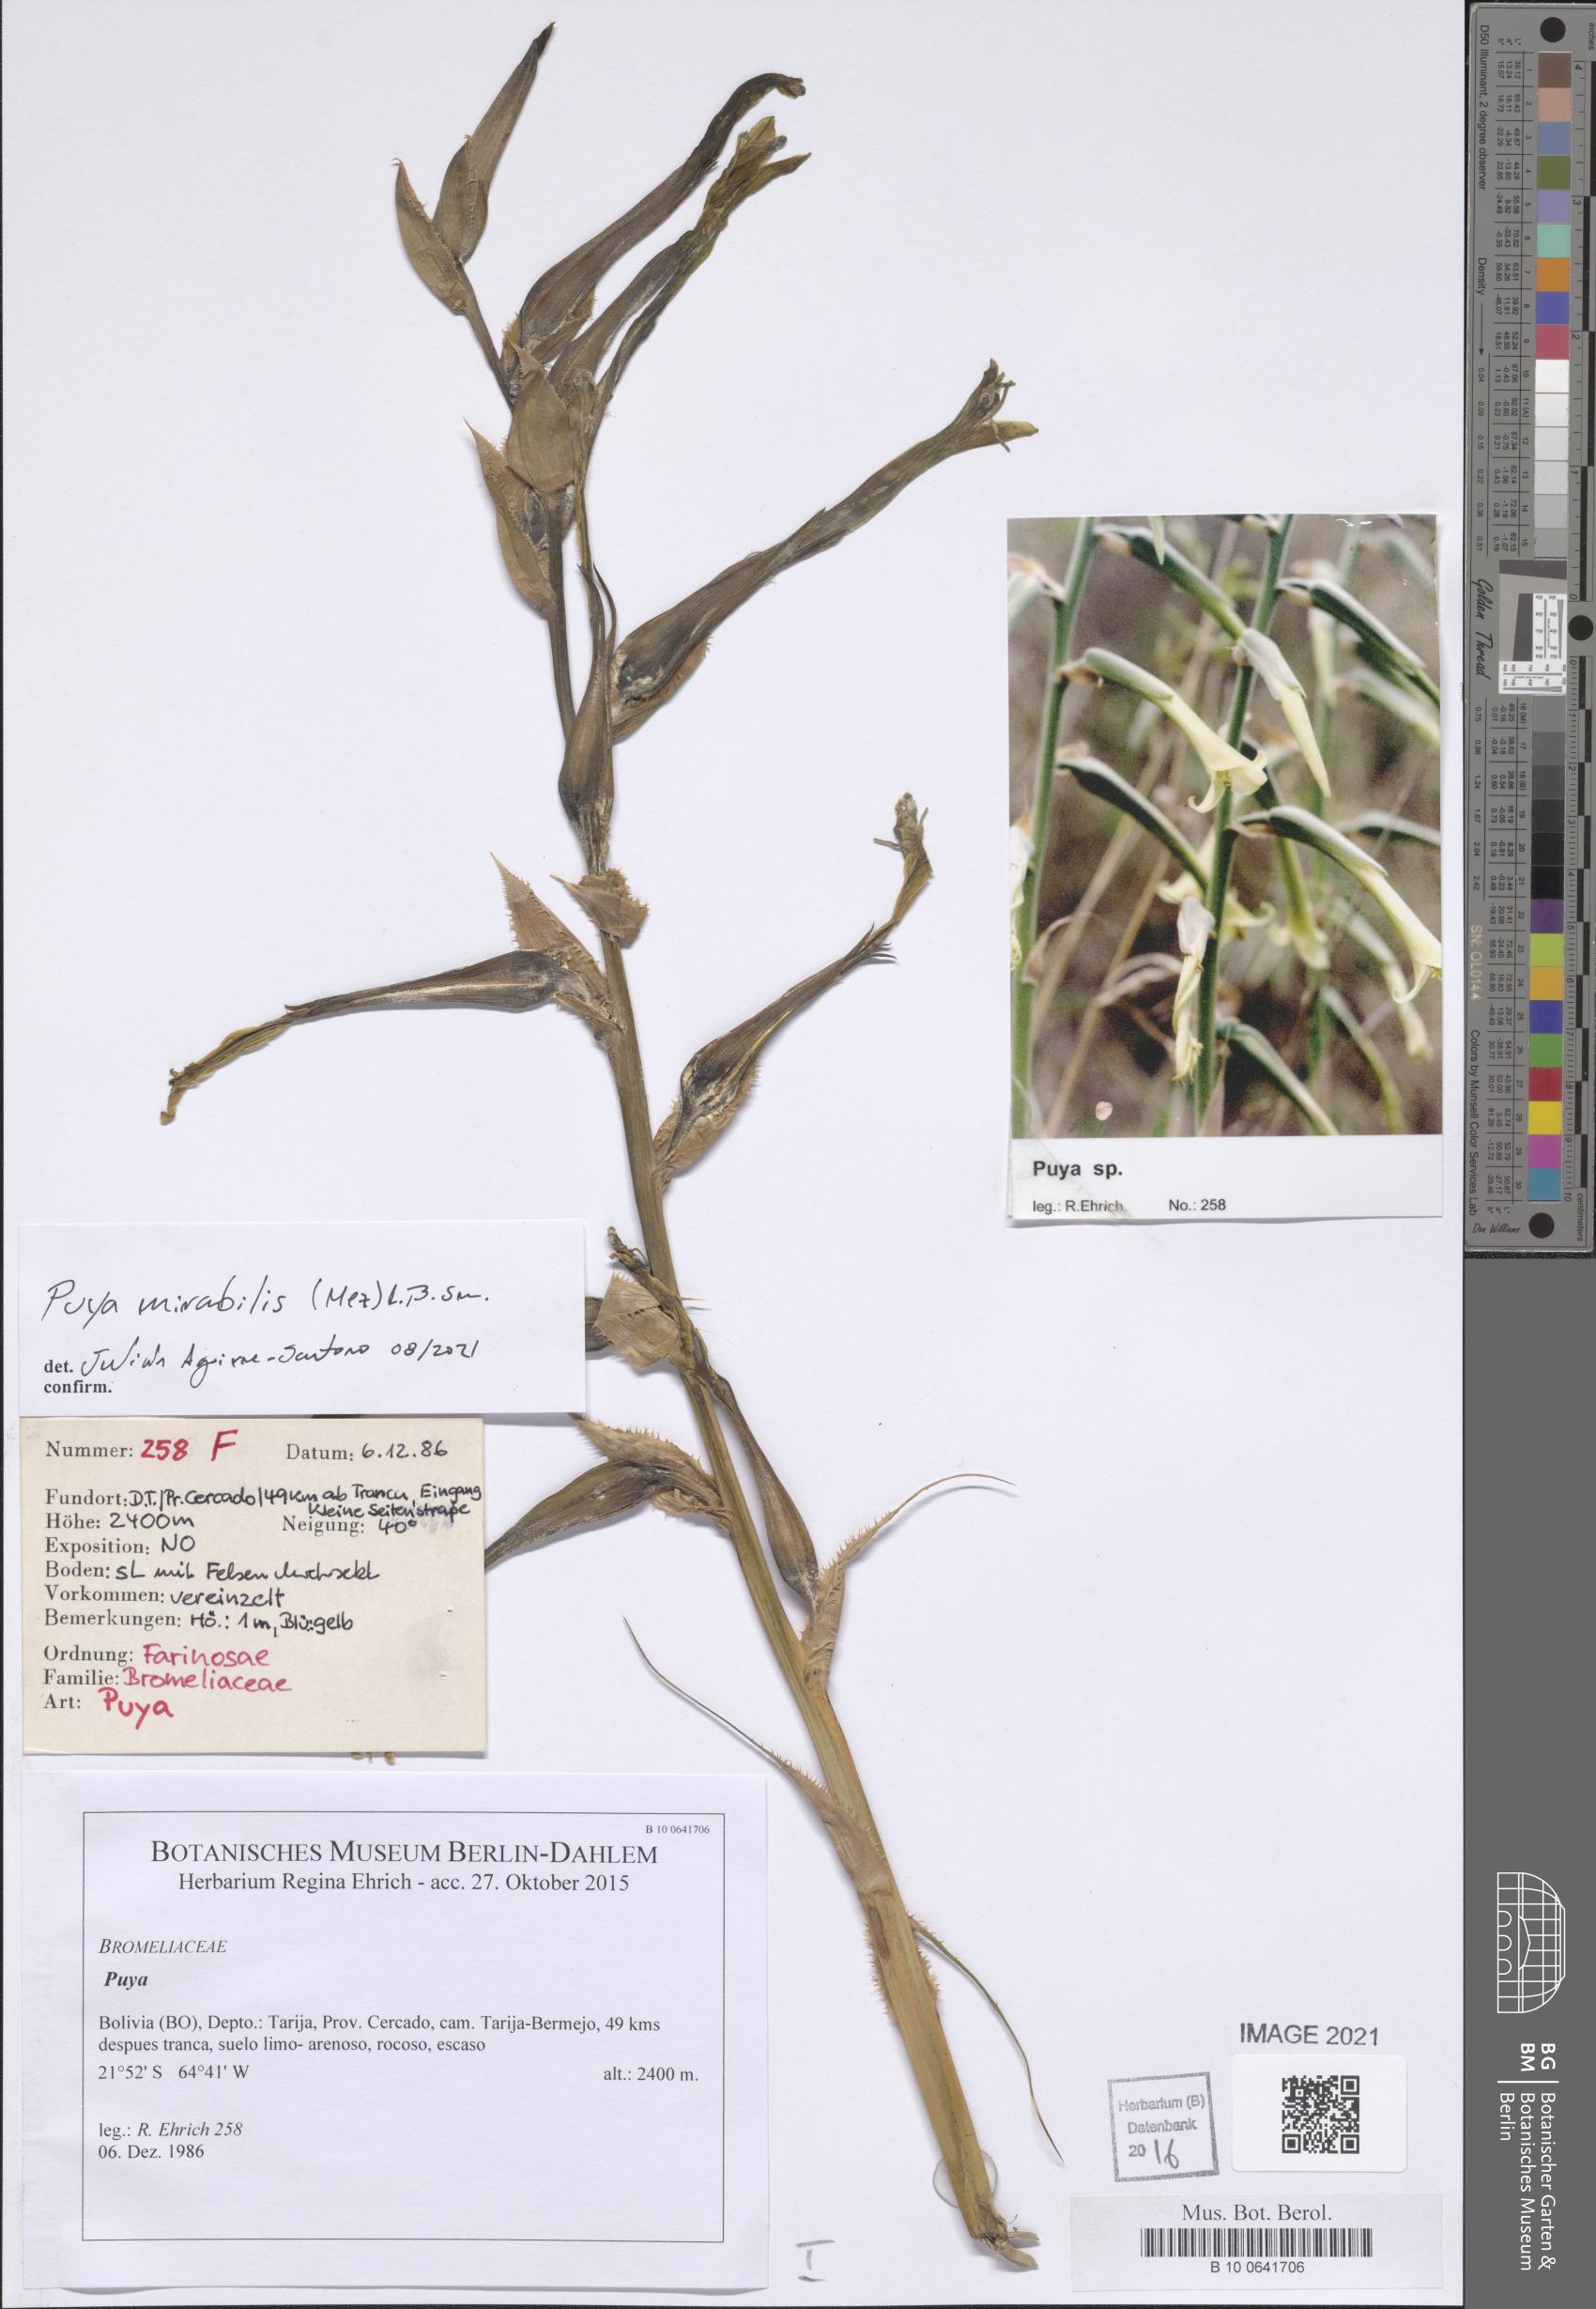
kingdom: Plantae
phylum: Tracheophyta
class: Liliopsida
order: Poales
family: Bromeliaceae
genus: Puya
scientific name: Puya mirabilis
